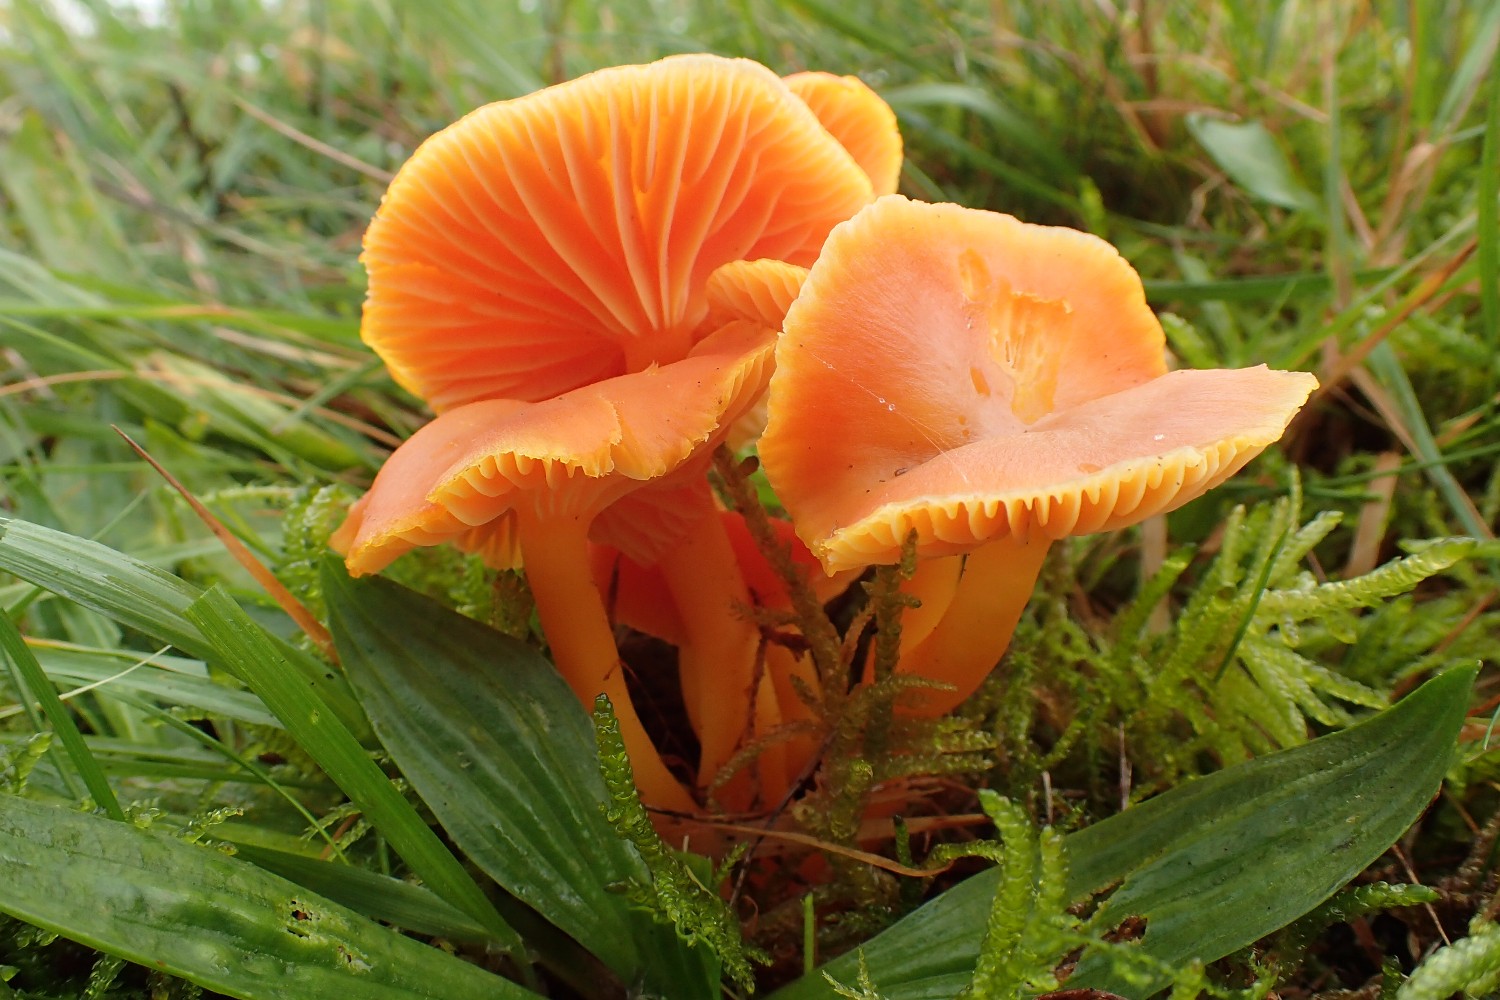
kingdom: Fungi
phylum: Basidiomycota
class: Agaricomycetes
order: Agaricales
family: Hygrophoraceae
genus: Hygrocybe
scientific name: Hygrocybe reidii
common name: honning-vokshat
